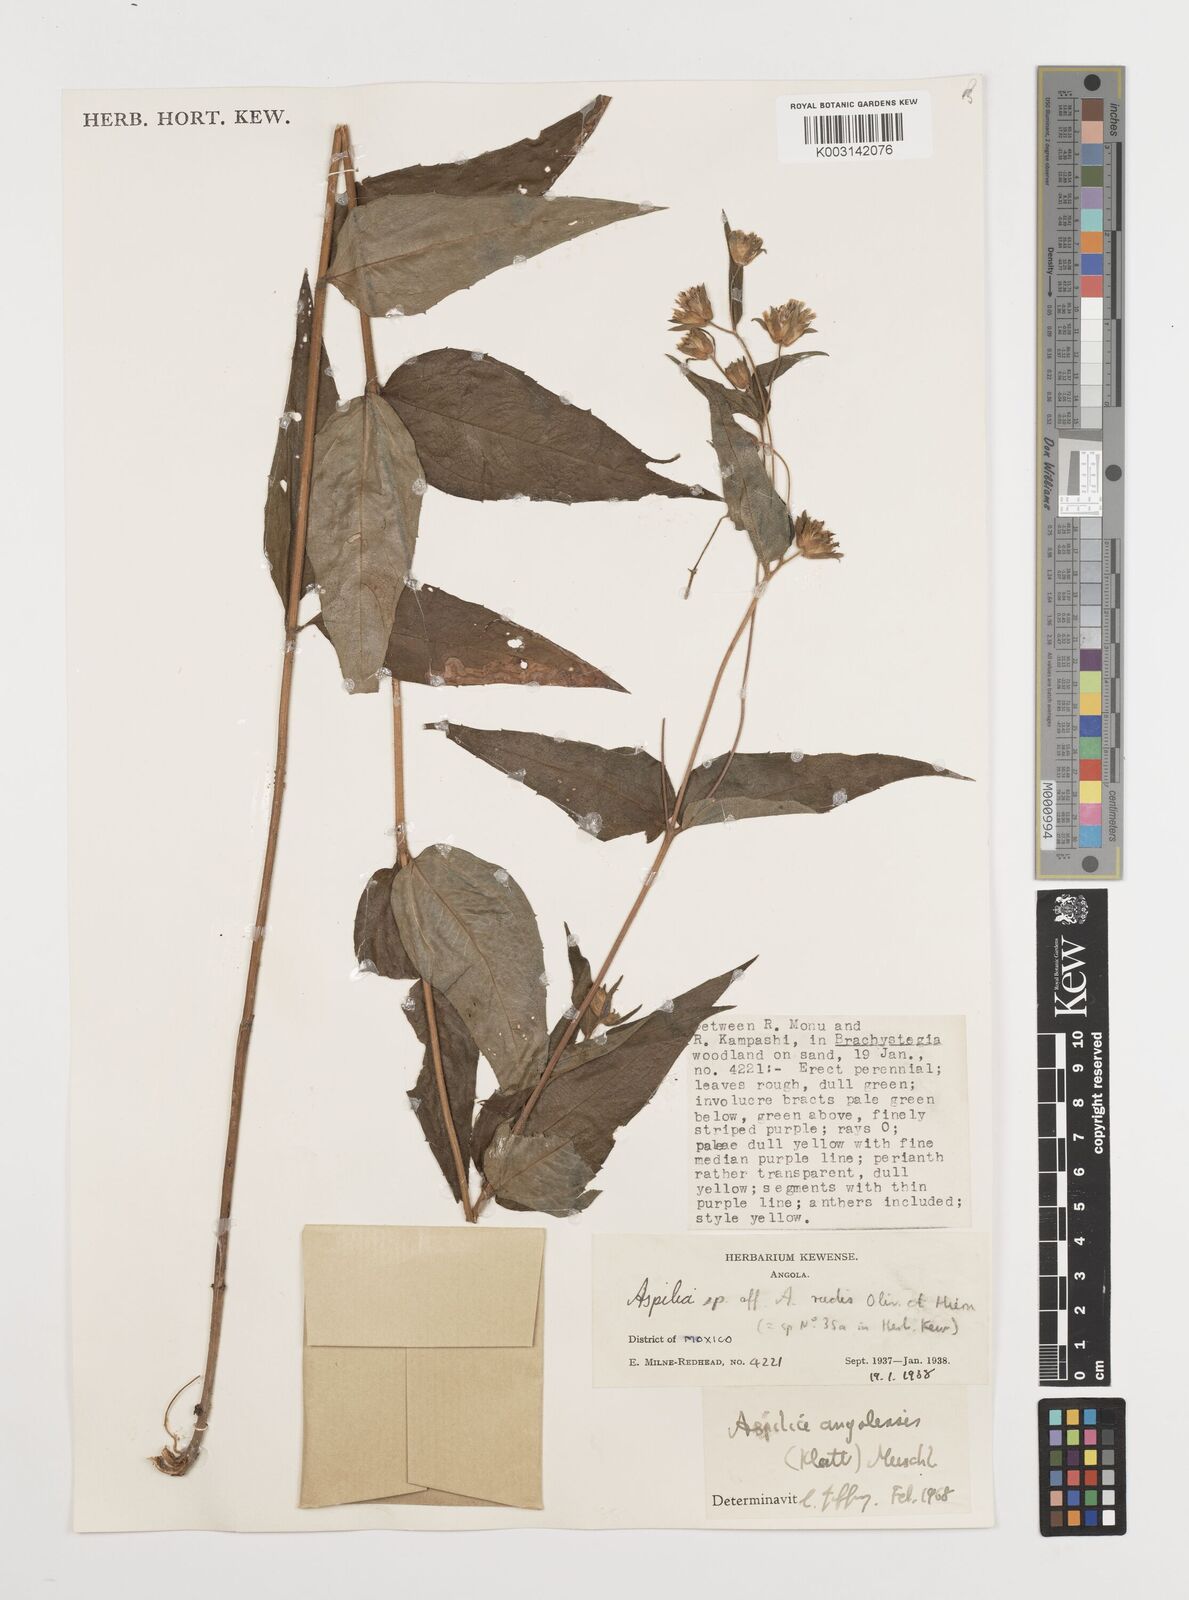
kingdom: Plantae
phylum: Tracheophyta
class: Magnoliopsida
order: Asterales
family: Asteraceae
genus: Aspilia
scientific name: Aspilia angolensis
